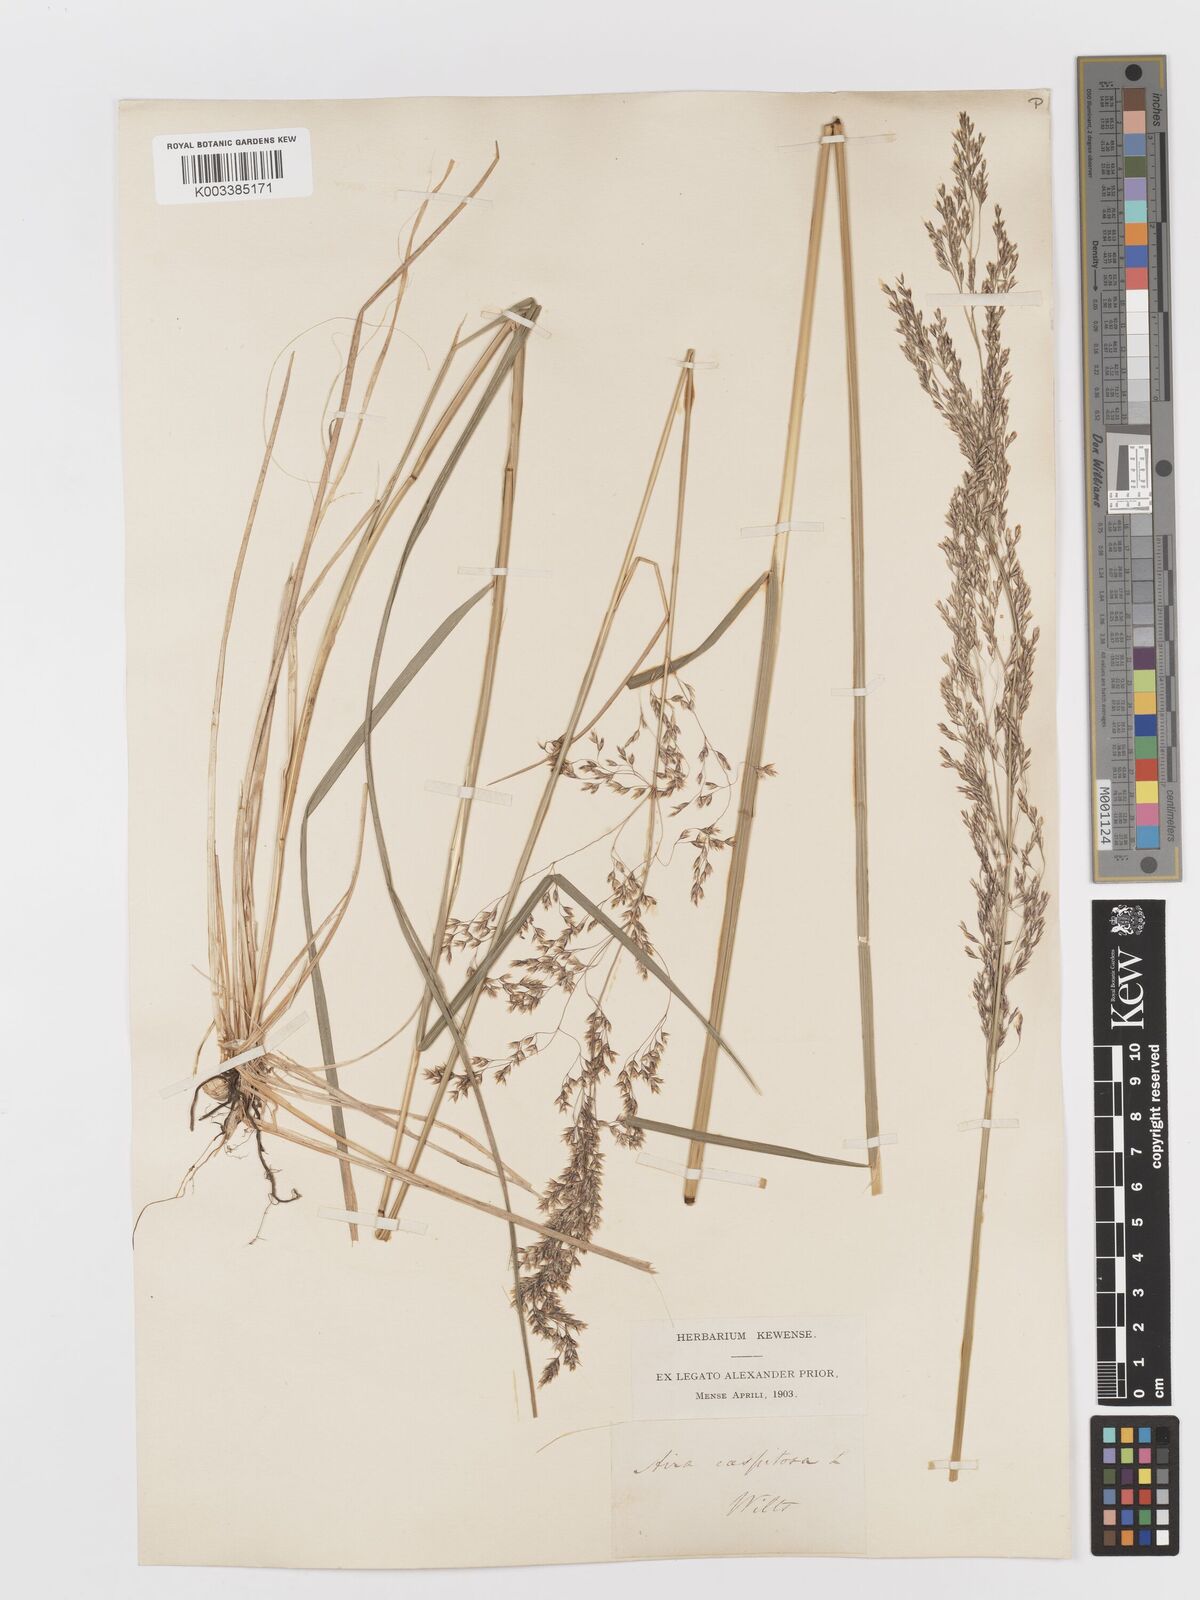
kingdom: Plantae
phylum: Tracheophyta
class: Liliopsida
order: Poales
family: Poaceae
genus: Deschampsia
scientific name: Deschampsia cespitosa
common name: Tufted hair-grass
